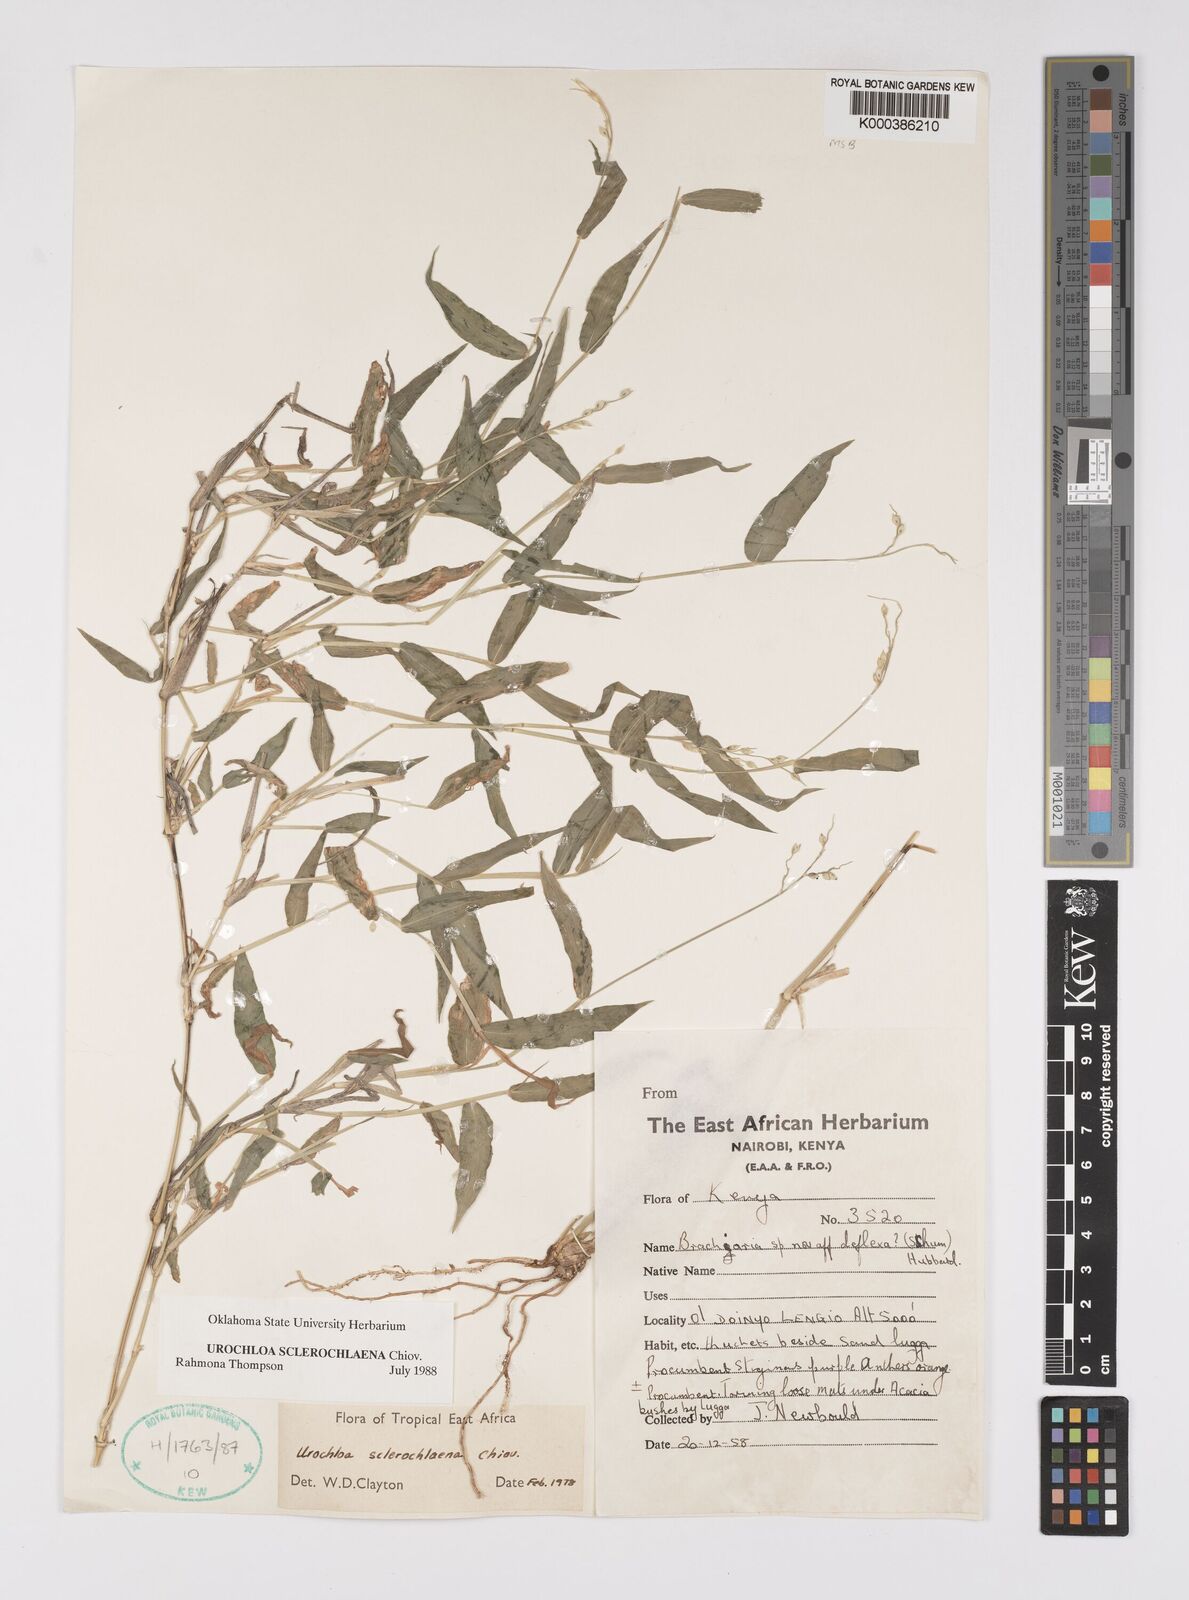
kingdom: Plantae
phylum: Tracheophyta
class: Liliopsida
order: Poales
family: Poaceae
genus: Urochloa
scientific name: Urochloa sclerochlaena
